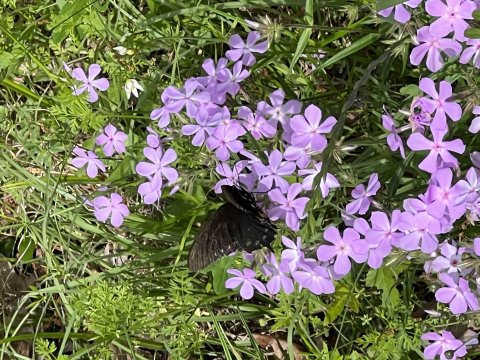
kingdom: Animalia
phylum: Arthropoda
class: Insecta
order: Lepidoptera
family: Papilionidae
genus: Battus
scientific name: Battus philenor
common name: Pipevine Swallowtail
